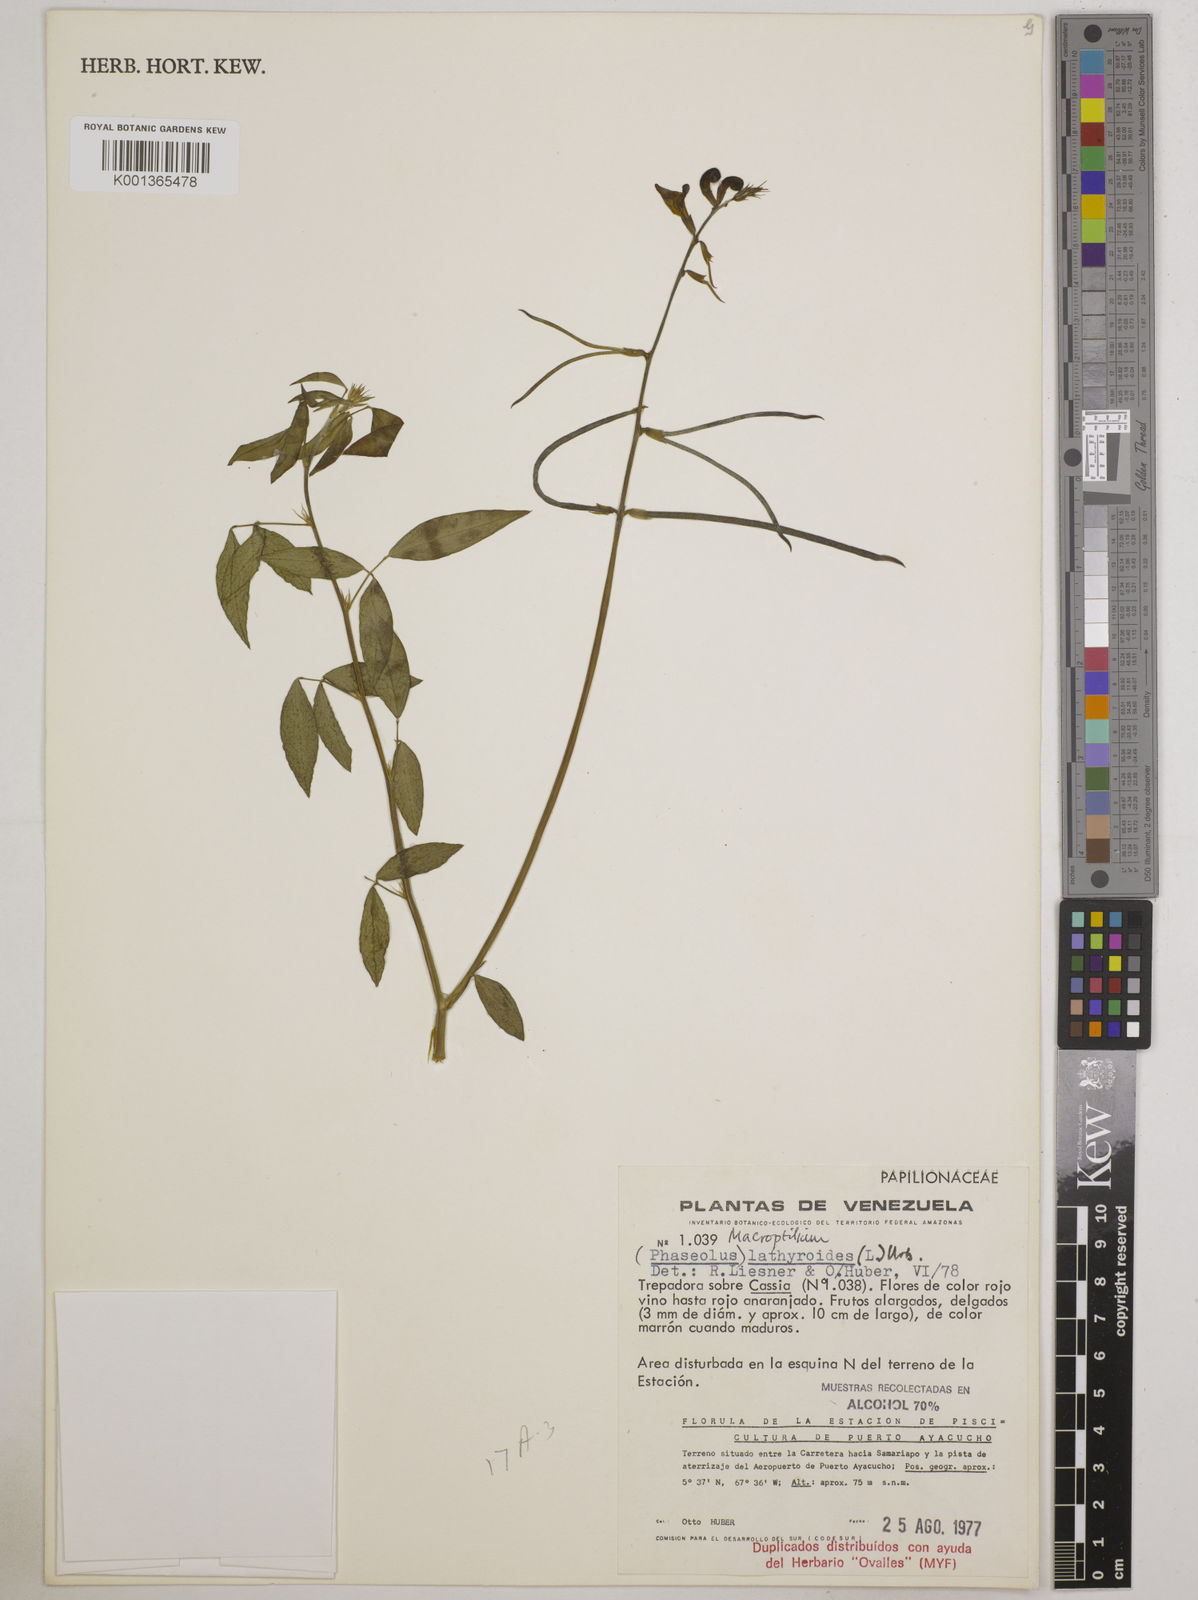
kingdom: Plantae
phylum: Tracheophyta
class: Magnoliopsida
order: Fabales
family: Fabaceae
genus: Macroptilium
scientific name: Macroptilium lathyroides
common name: Wild bushbean
